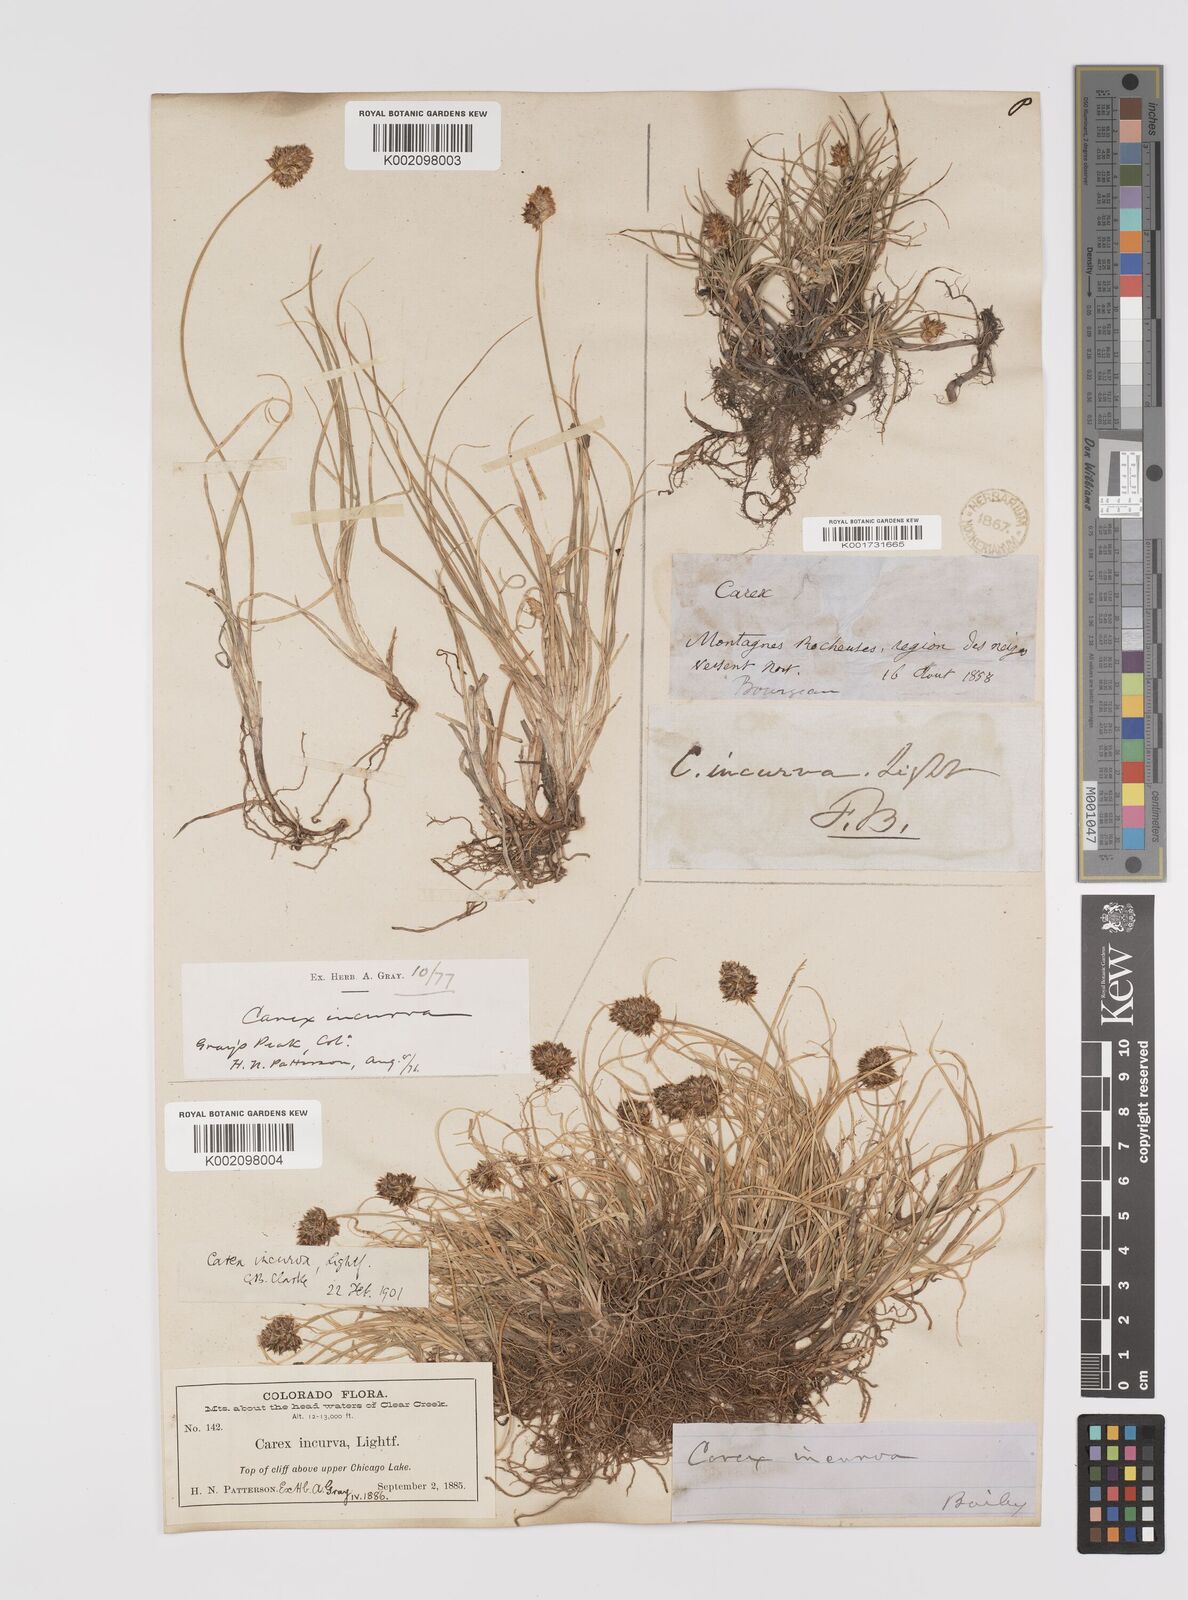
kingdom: Plantae
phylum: Tracheophyta
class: Liliopsida
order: Poales
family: Cyperaceae
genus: Carex
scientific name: Carex maritima
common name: Curved sedge
